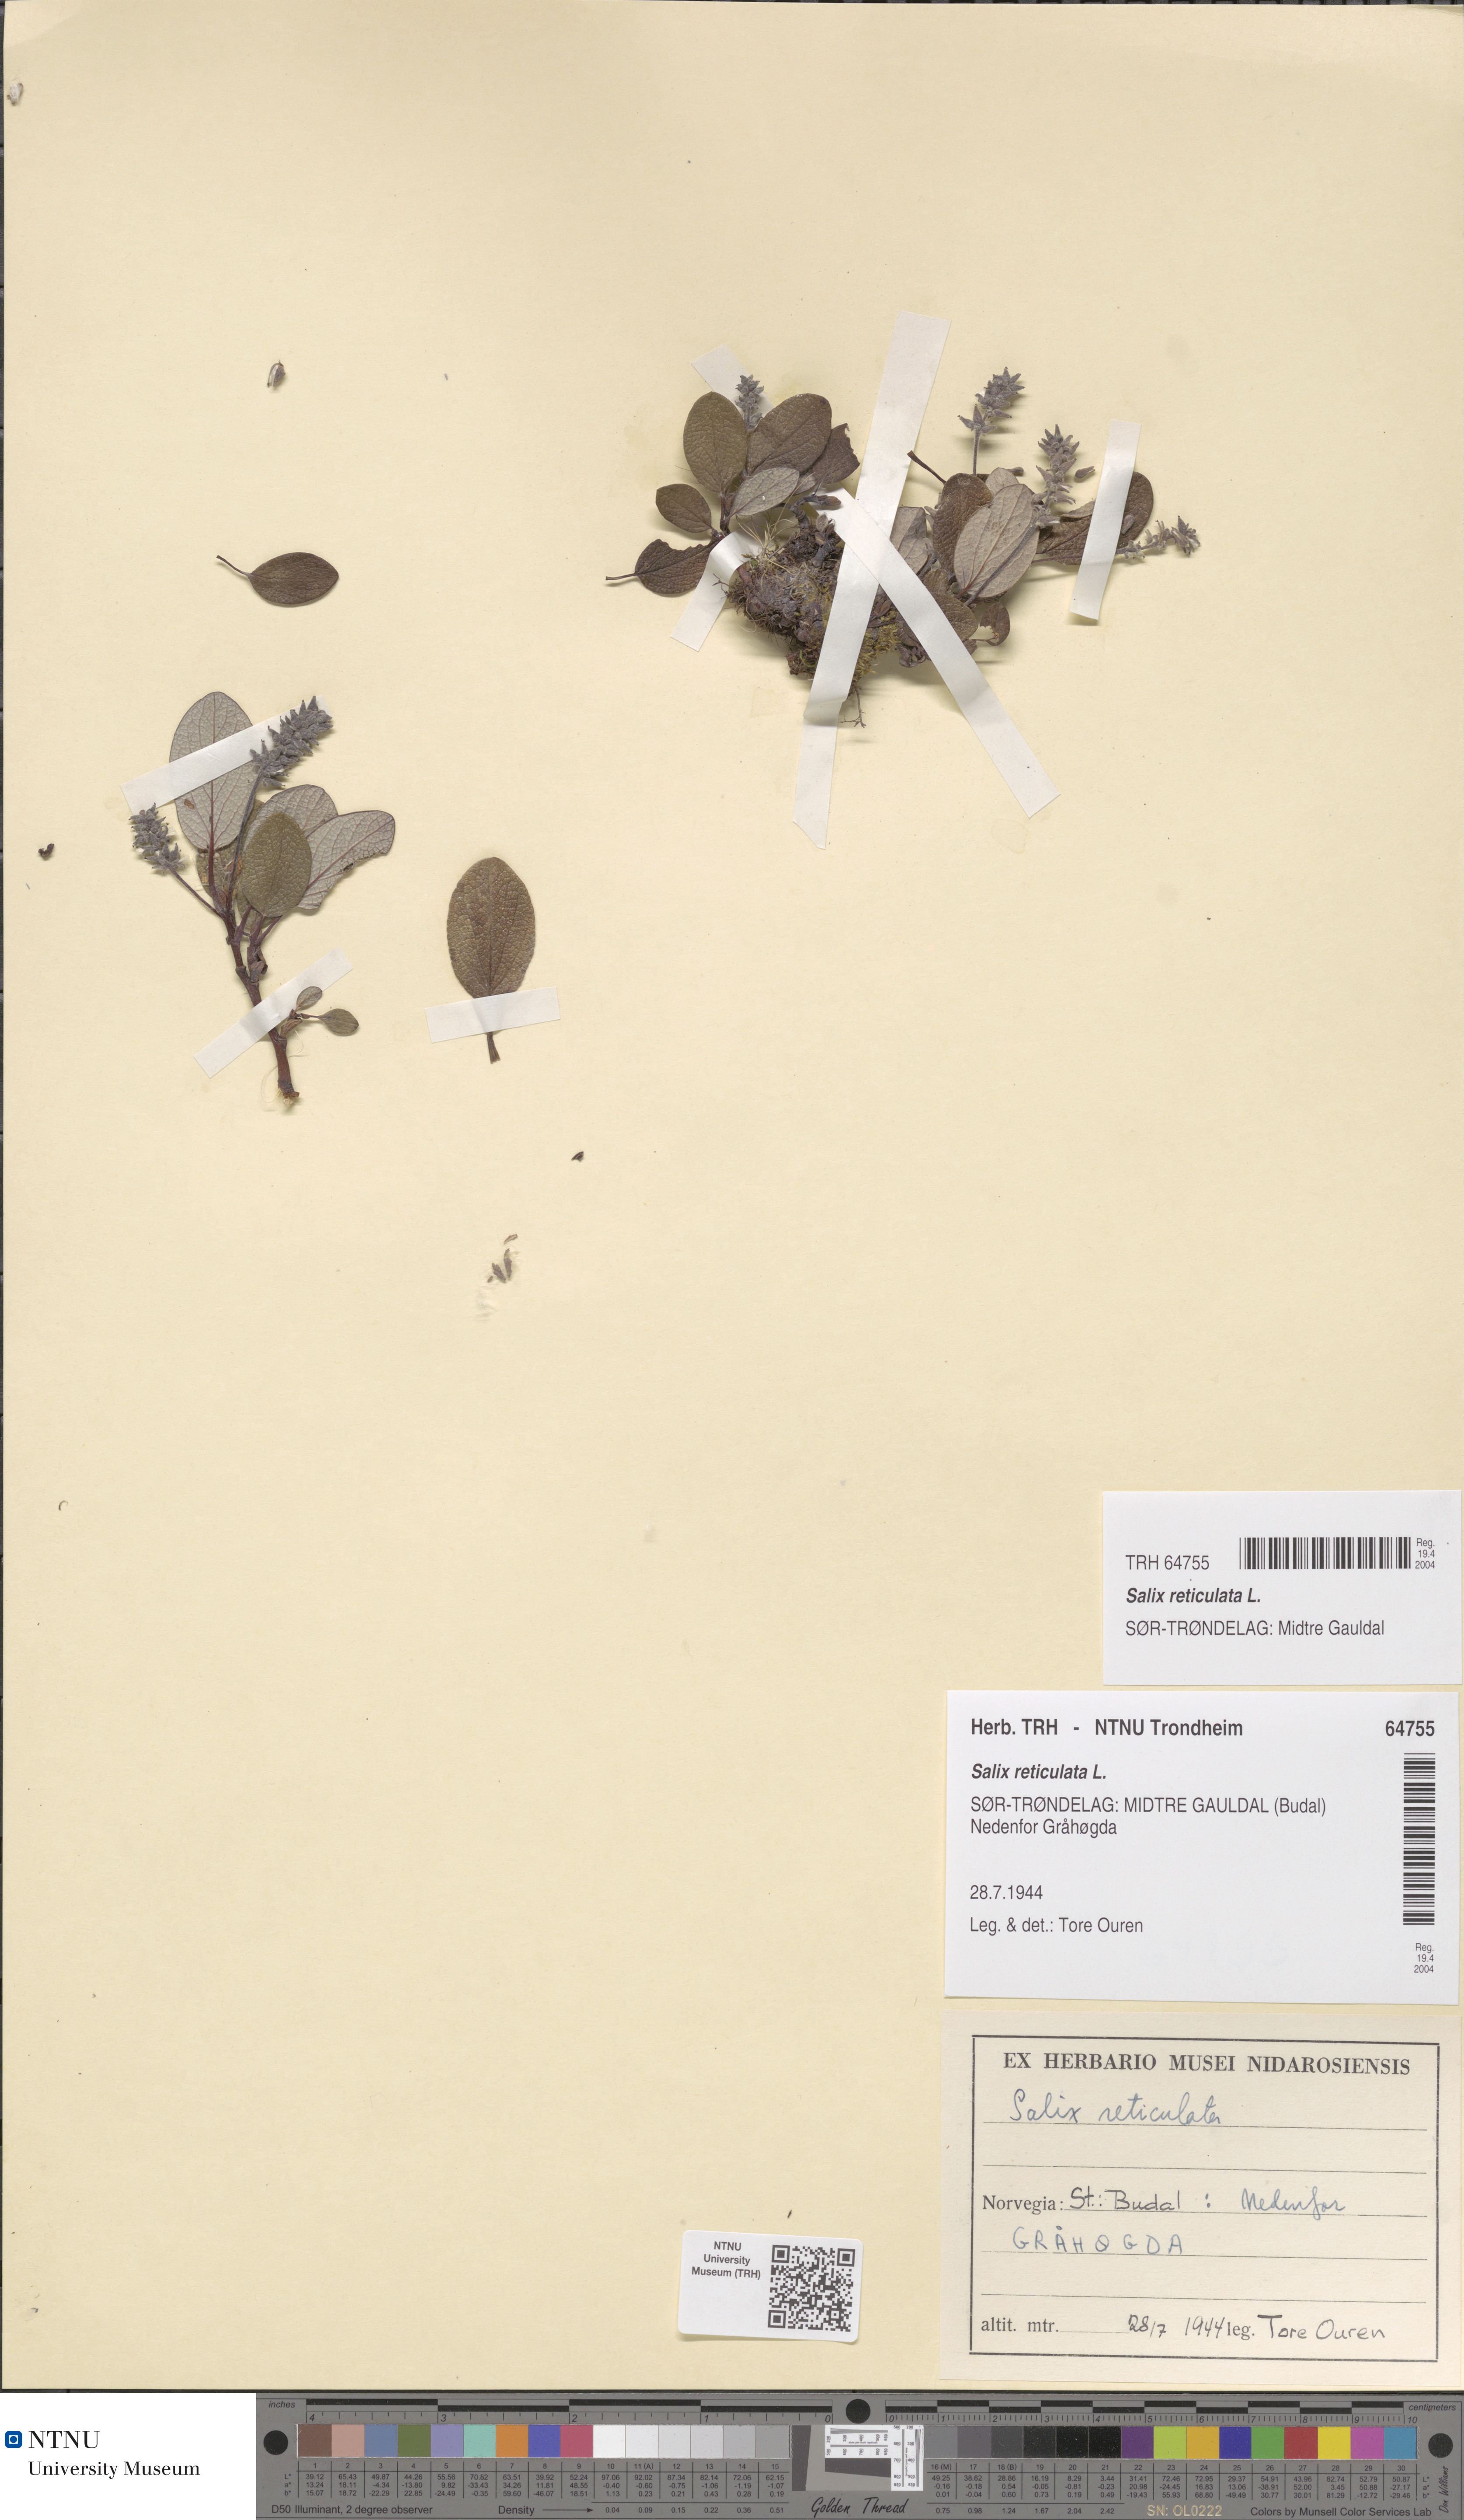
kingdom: Plantae
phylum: Tracheophyta
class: Magnoliopsida
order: Malpighiales
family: Salicaceae
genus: Salix
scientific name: Salix reticulata
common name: Net-leaved willow
